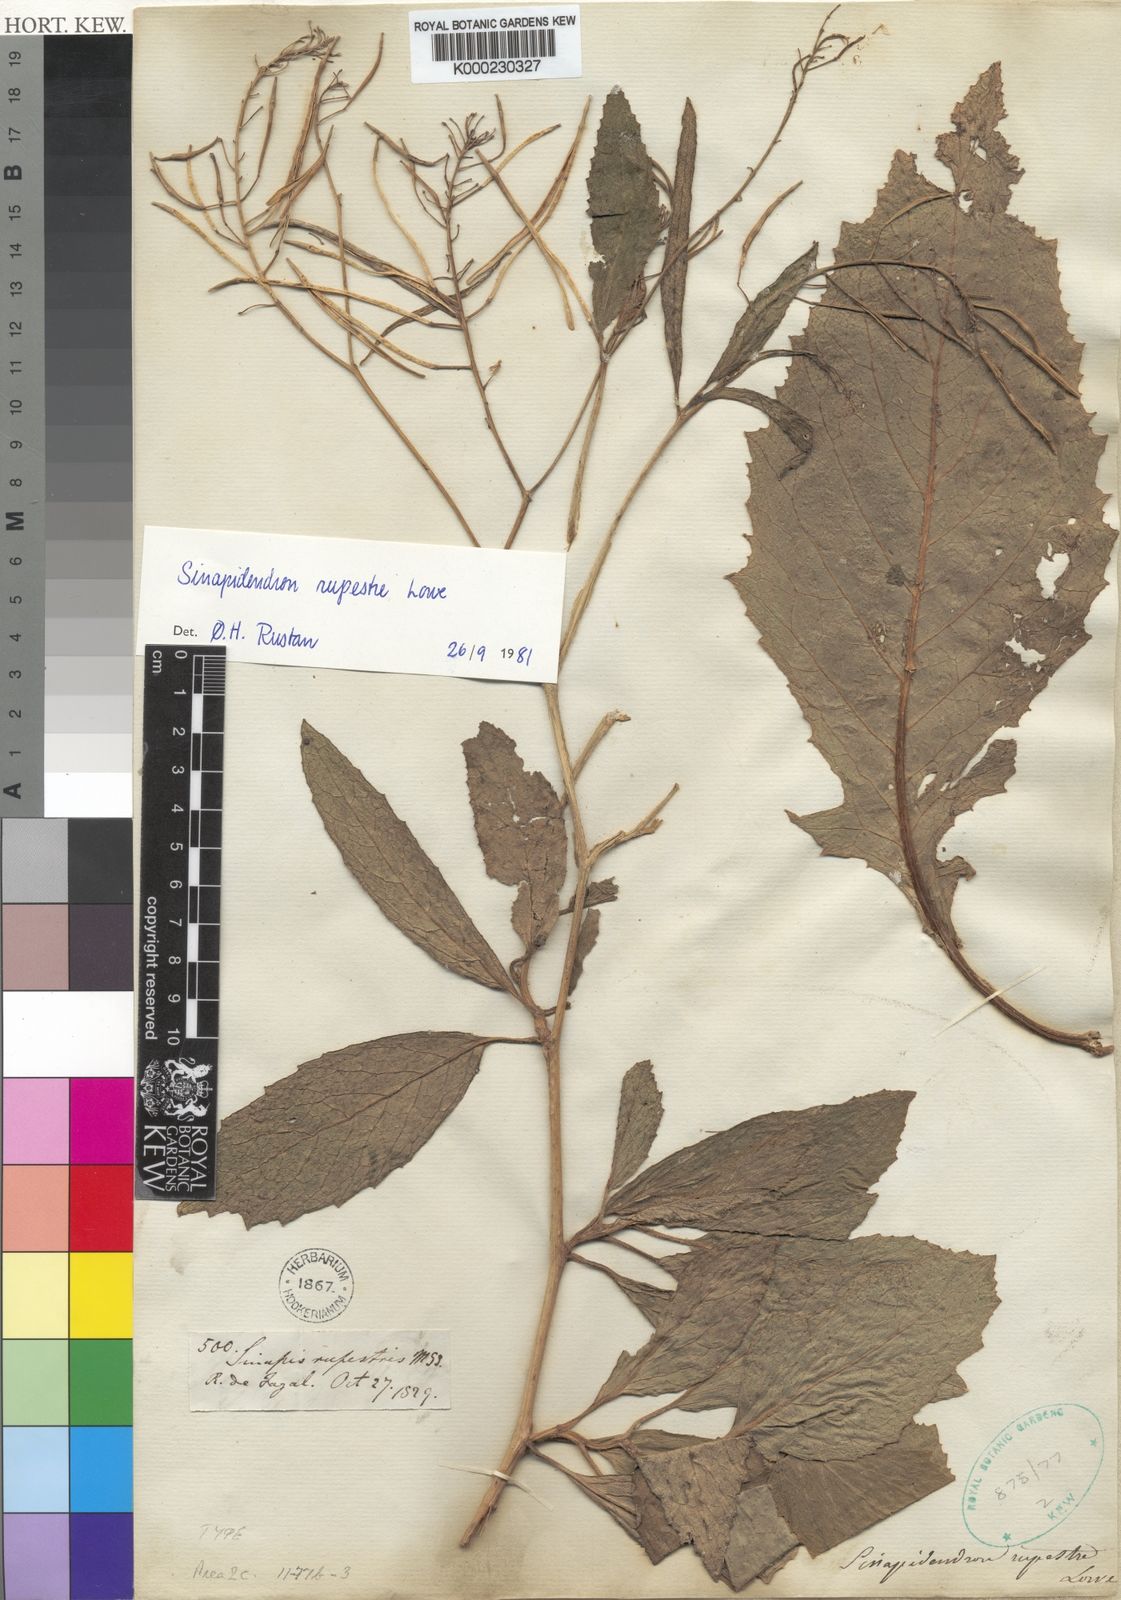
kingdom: Plantae
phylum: Tracheophyta
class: Magnoliopsida
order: Brassicales
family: Brassicaceae
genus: Sinapidendron
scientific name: Sinapidendron rupestre
